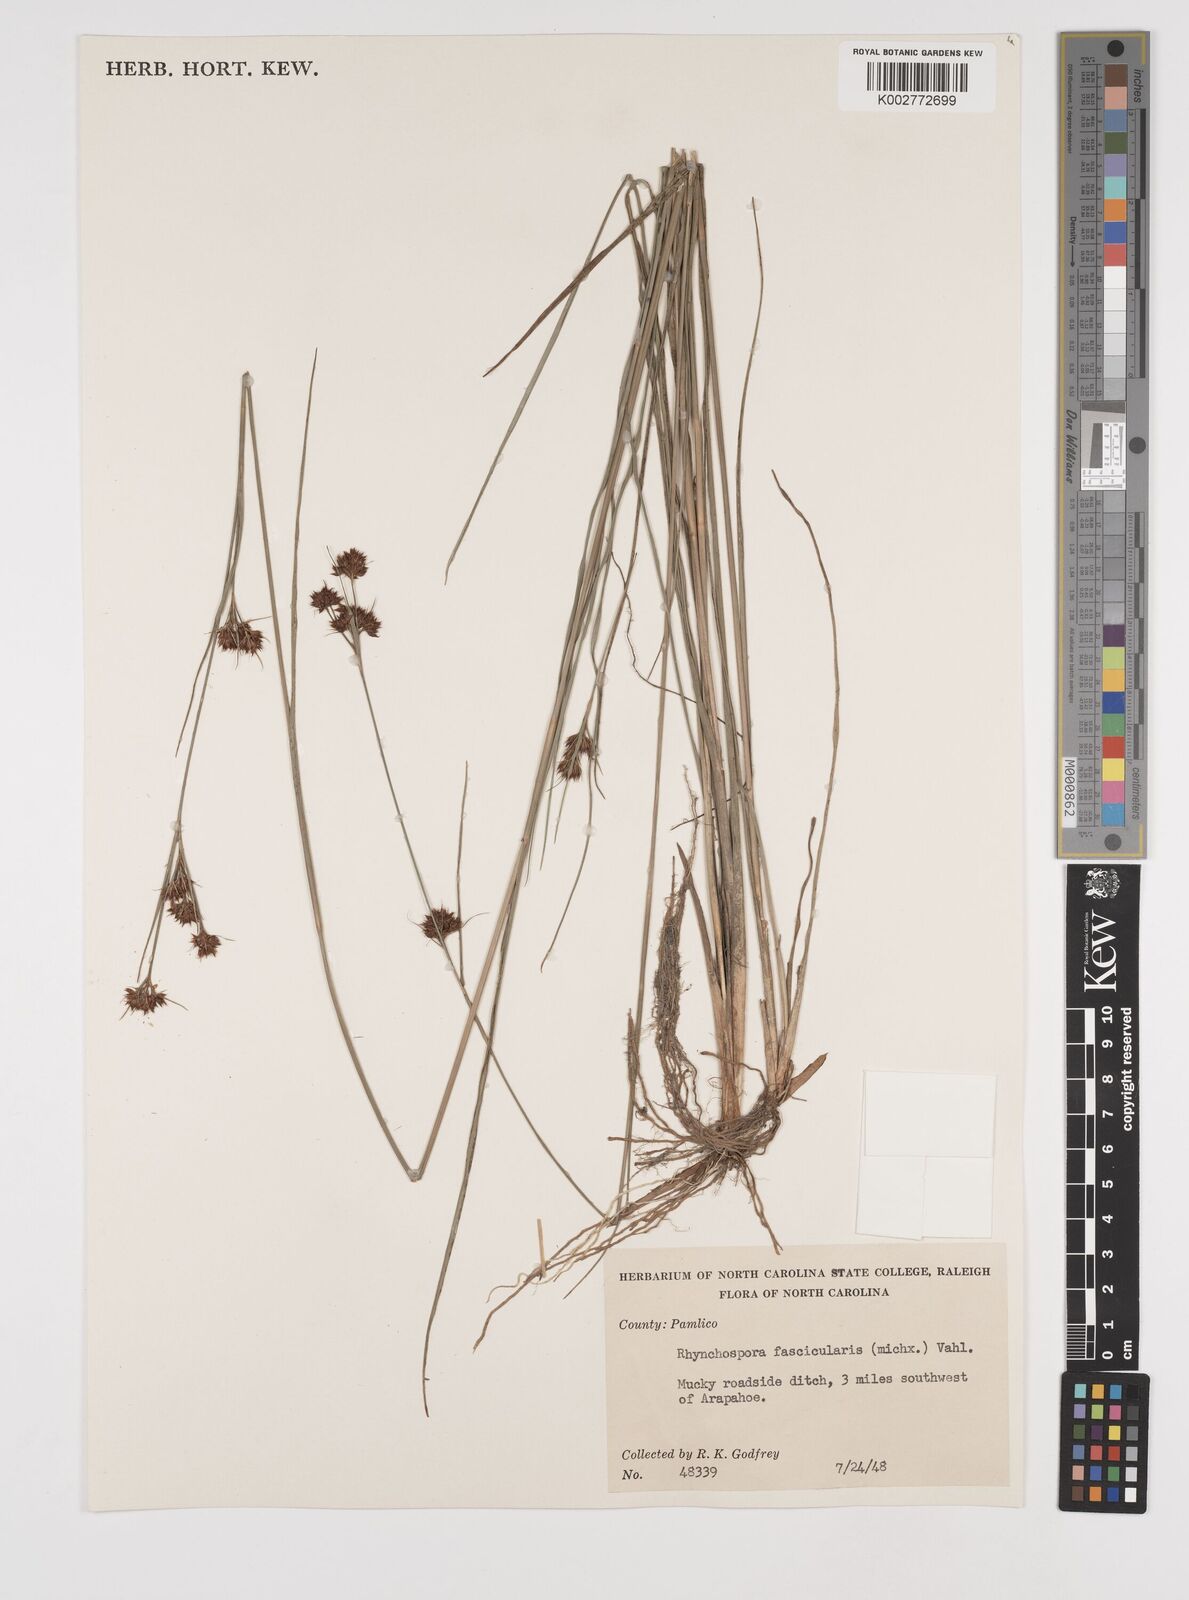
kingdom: Plantae
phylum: Tracheophyta
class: Liliopsida
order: Poales
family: Cyperaceae
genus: Rhynchospora
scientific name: Rhynchospora fascicularis
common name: Fascicled beak sedge
